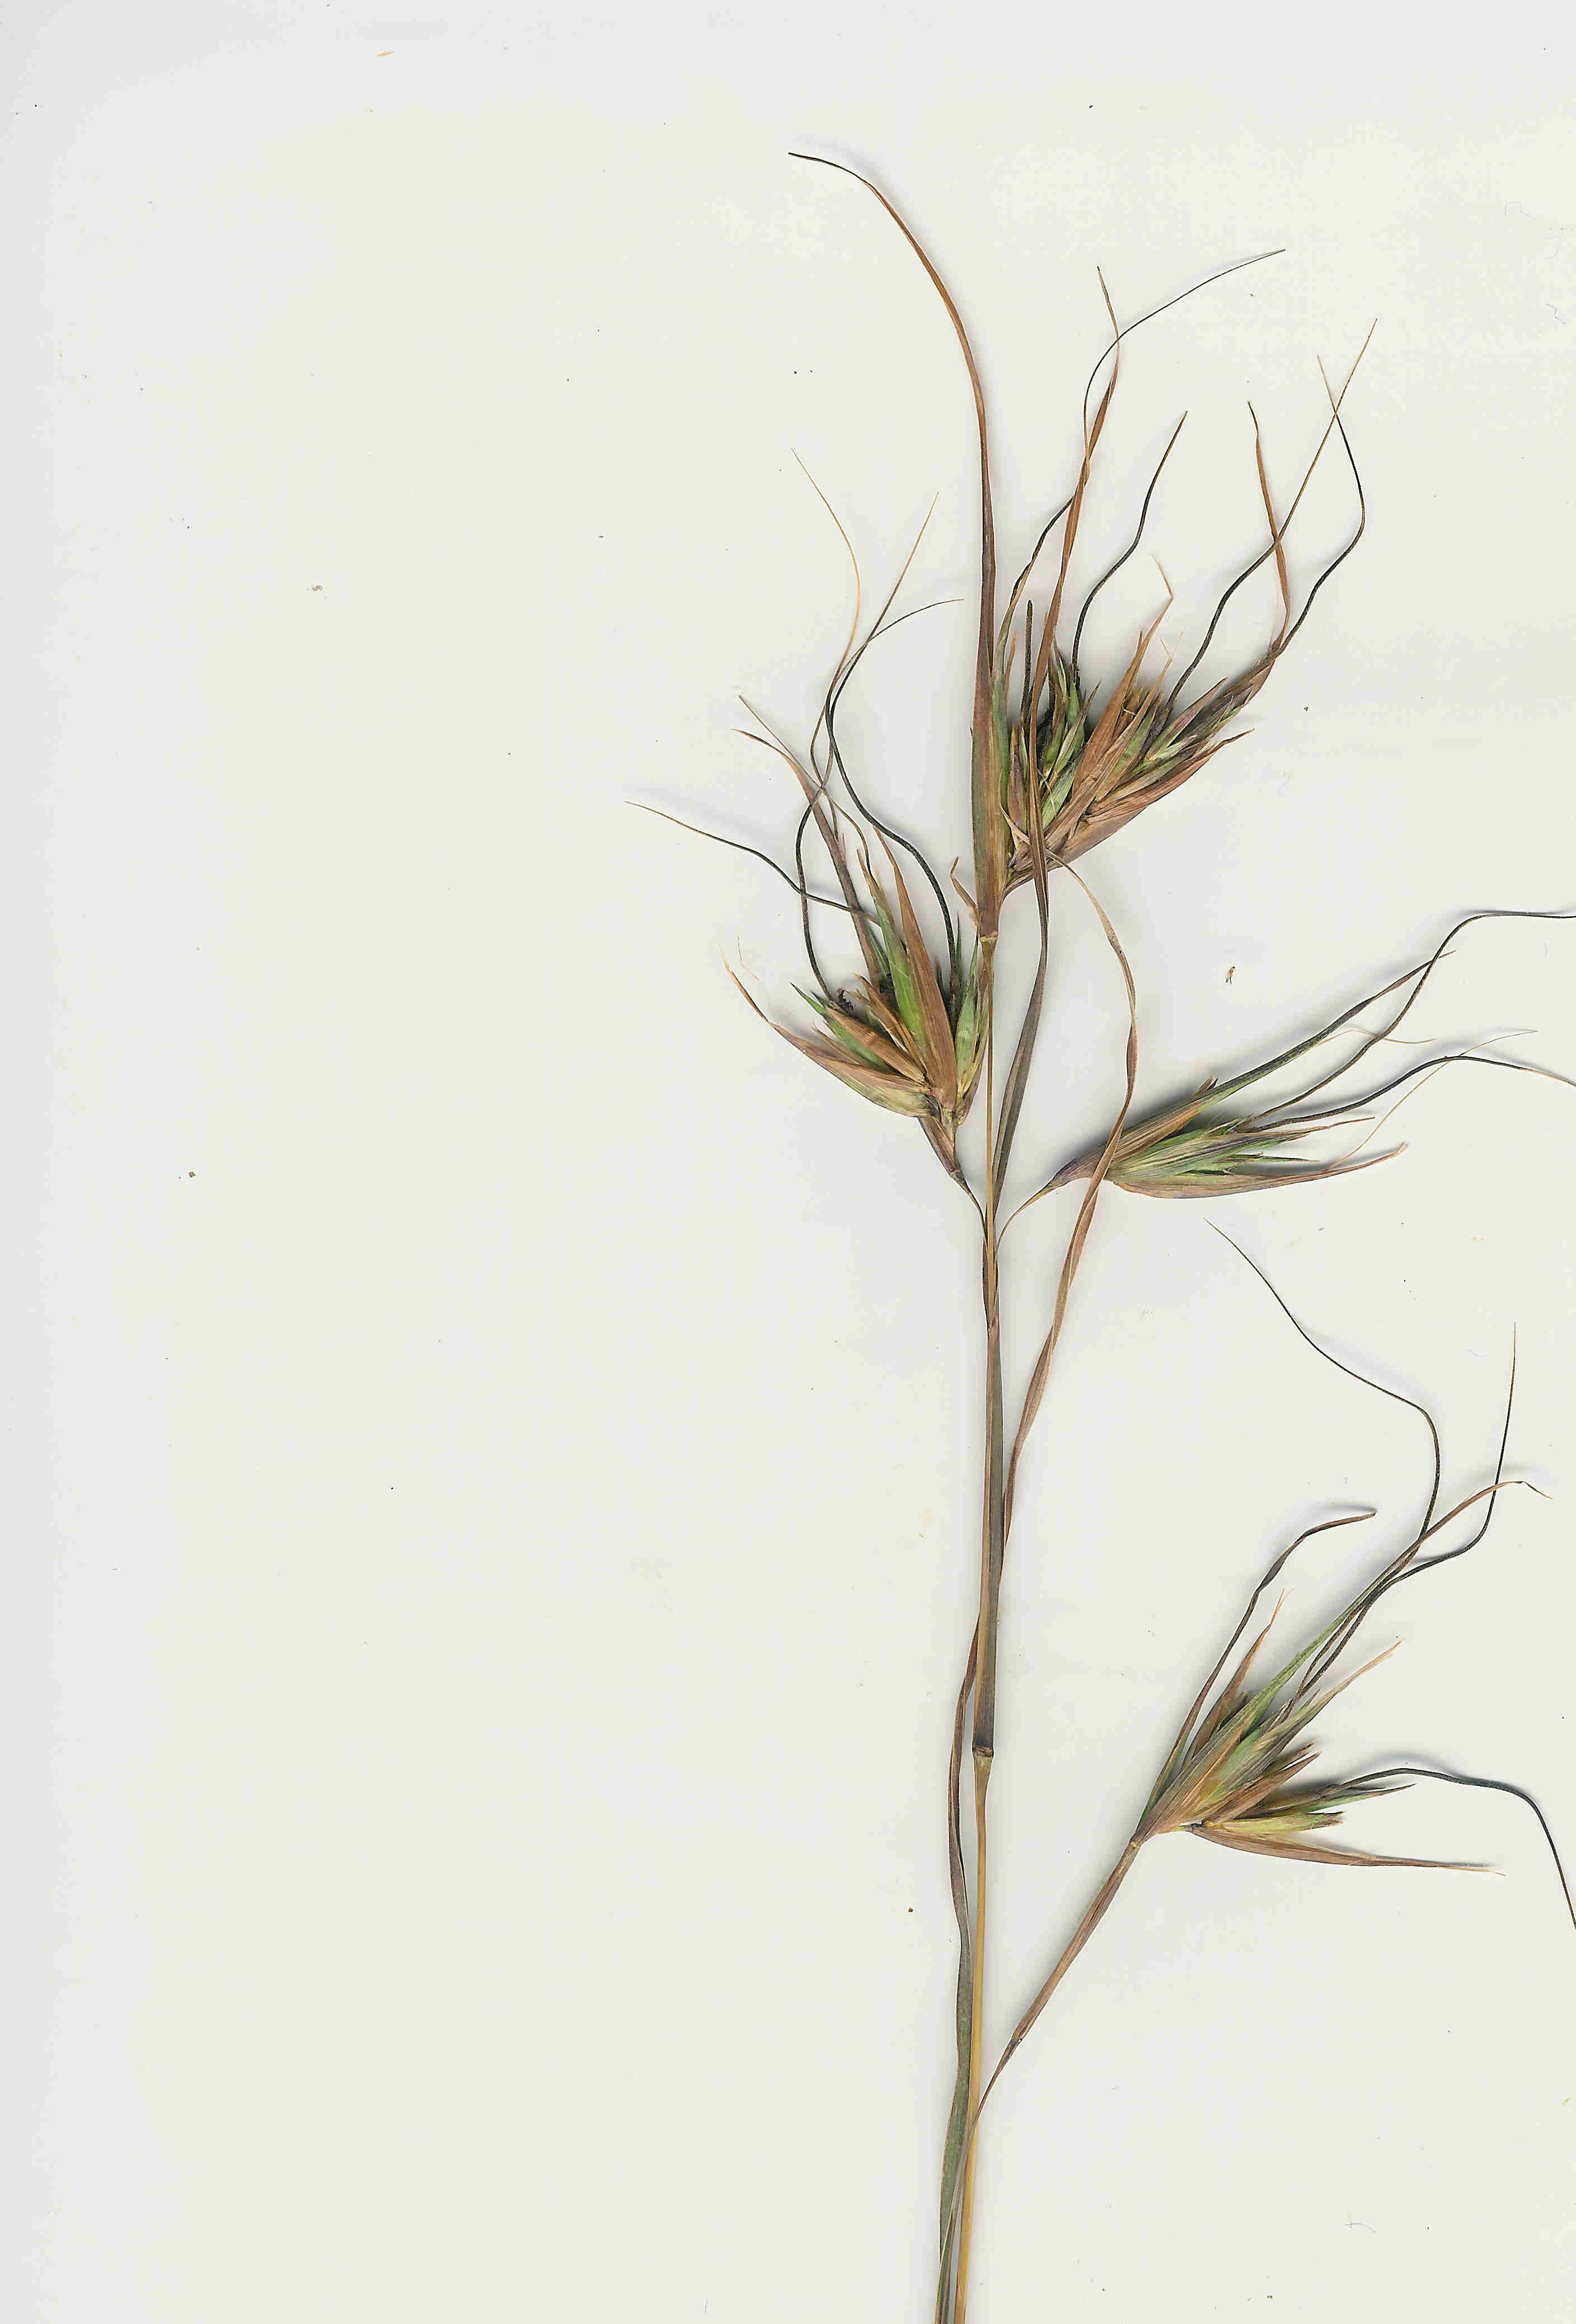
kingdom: Plantae
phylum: Tracheophyta
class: Liliopsida
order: Poales
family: Poaceae
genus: Themeda
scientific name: Themeda triandra
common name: Kangaroo grass
